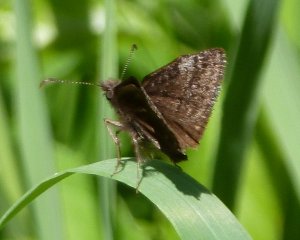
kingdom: Animalia
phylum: Arthropoda
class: Insecta
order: Lepidoptera
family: Hesperiidae
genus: Erynnis
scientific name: Erynnis icelus
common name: Dreamy Duskywing
